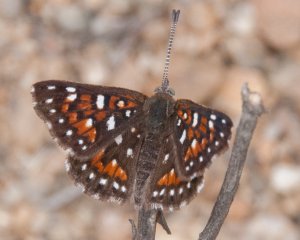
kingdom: Animalia
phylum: Arthropoda
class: Insecta
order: Lepidoptera
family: Riodinidae
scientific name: Riodinidae
